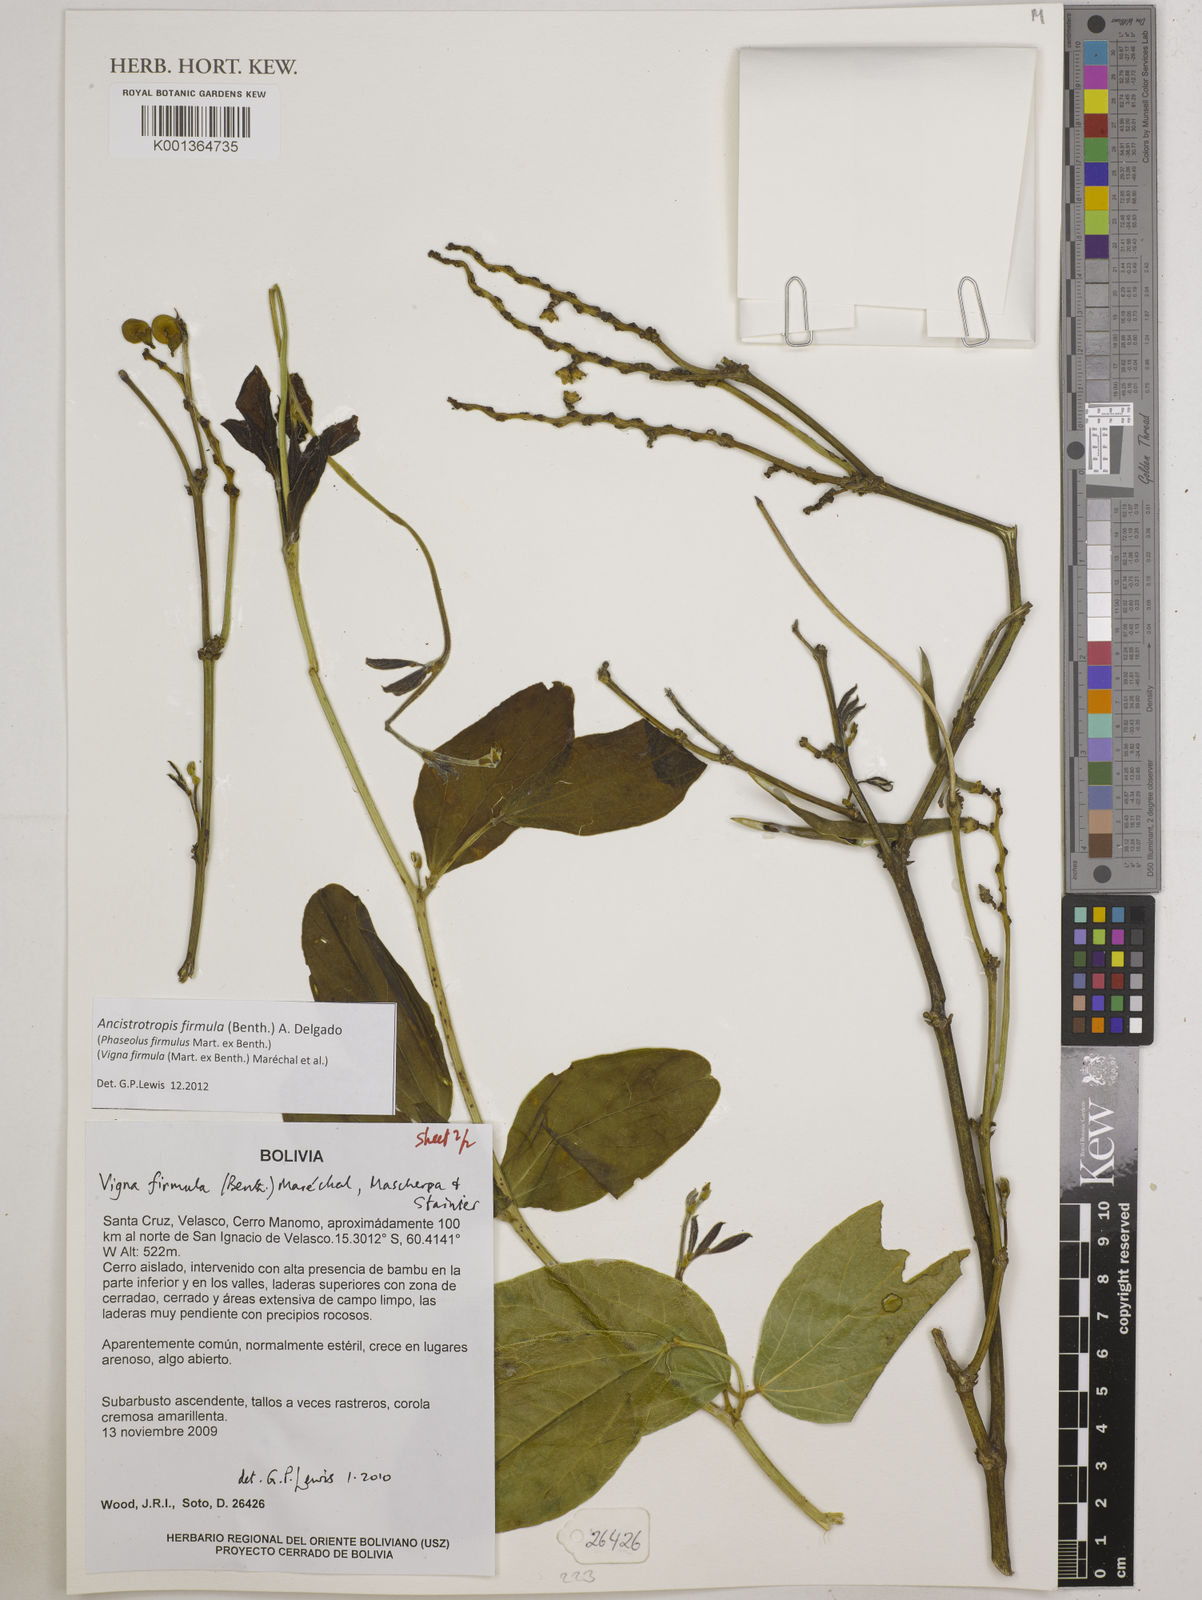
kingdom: Plantae
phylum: Tracheophyta
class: Magnoliopsida
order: Fabales
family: Fabaceae
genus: Ancistrotropis
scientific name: Ancistrotropis firmula
